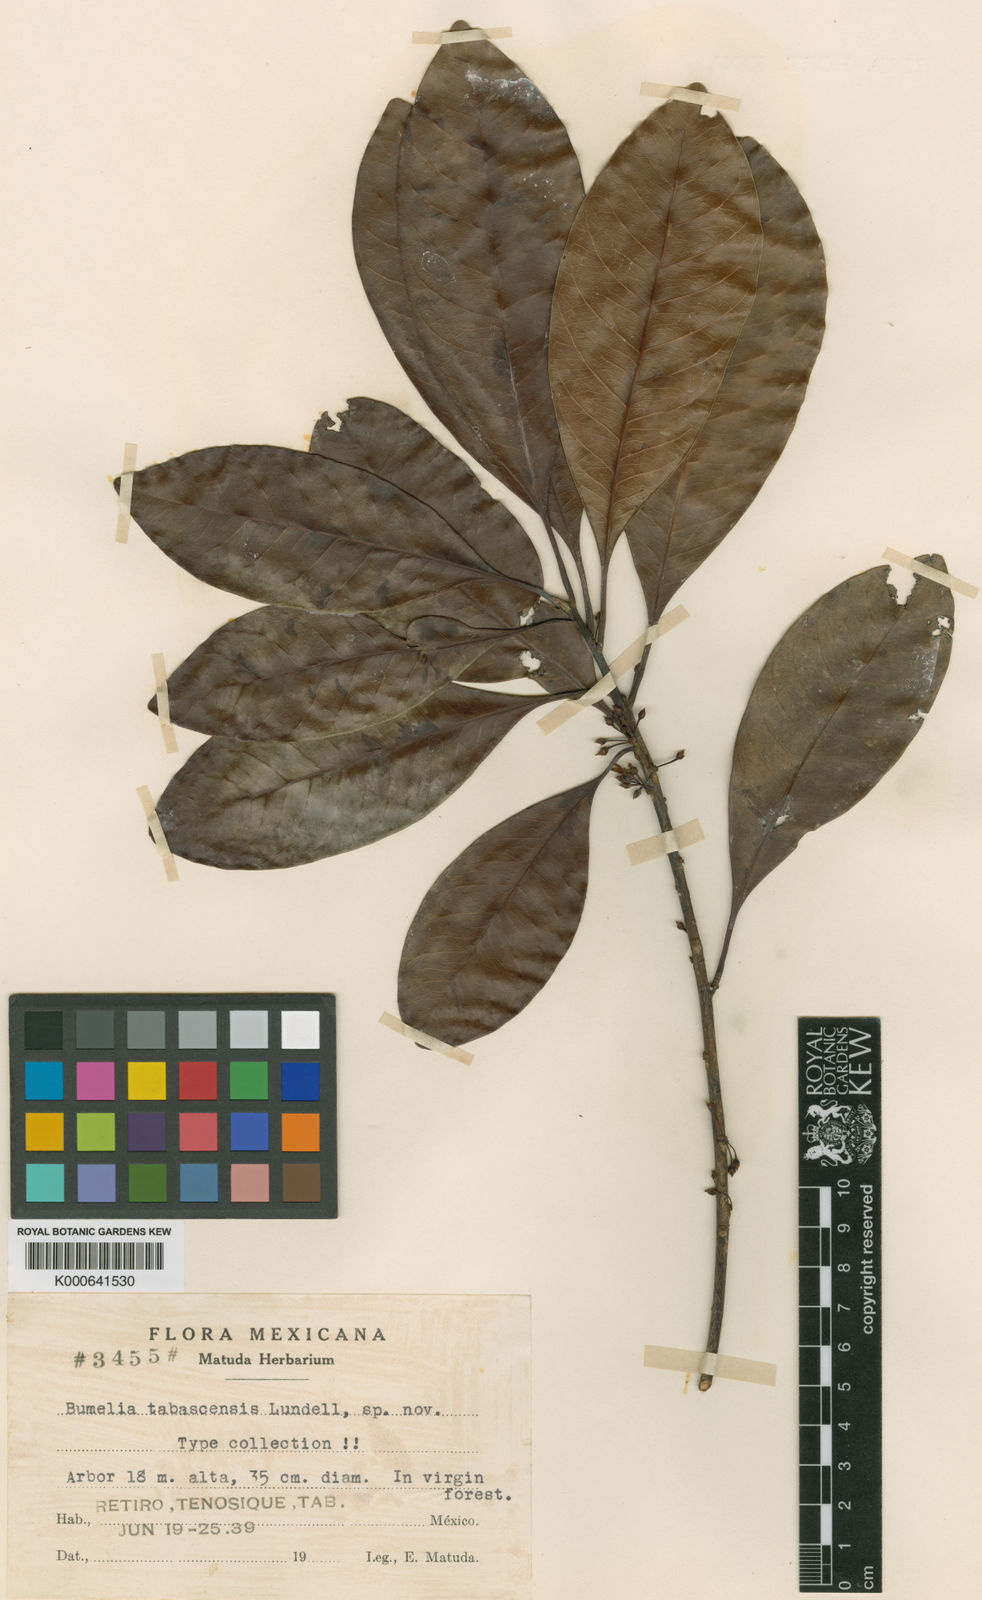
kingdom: Plantae
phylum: Tracheophyta
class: Magnoliopsida
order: Ericales
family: Sapotaceae
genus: Sideroxylon
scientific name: Sideroxylon portoricense
